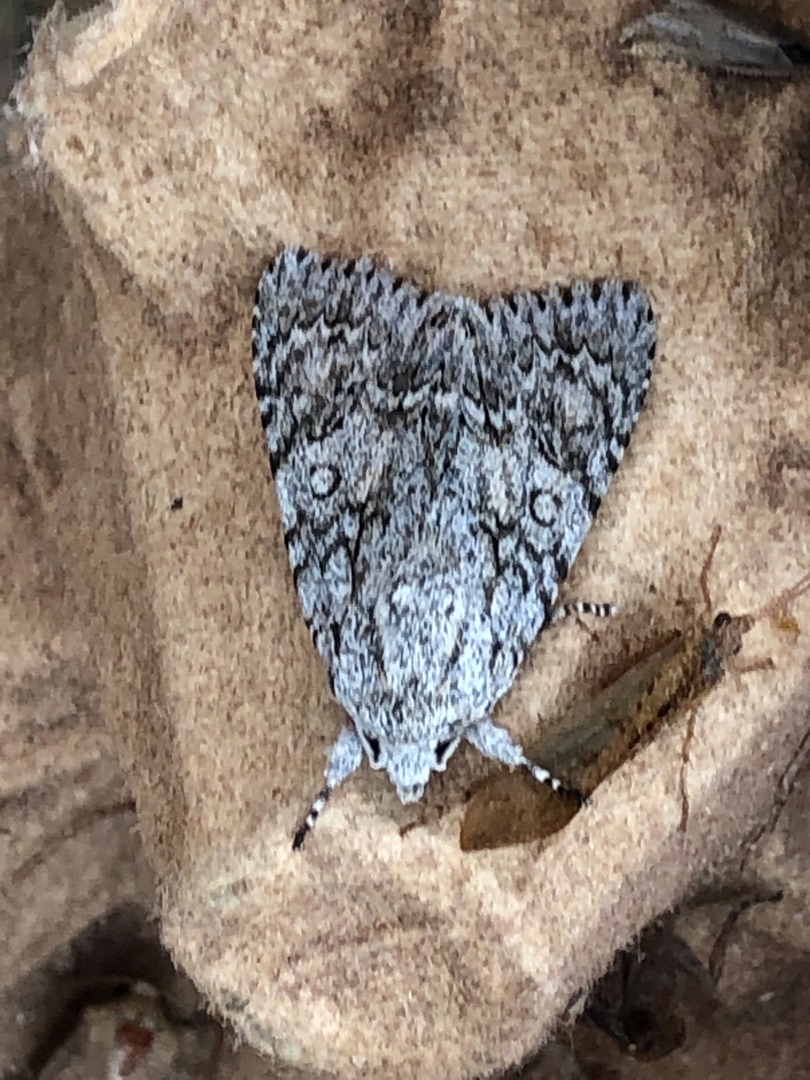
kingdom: Animalia
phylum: Arthropoda
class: Insecta
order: Lepidoptera
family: Noctuidae
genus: Acronicta
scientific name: Acronicta aceris
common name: Ahornugle
